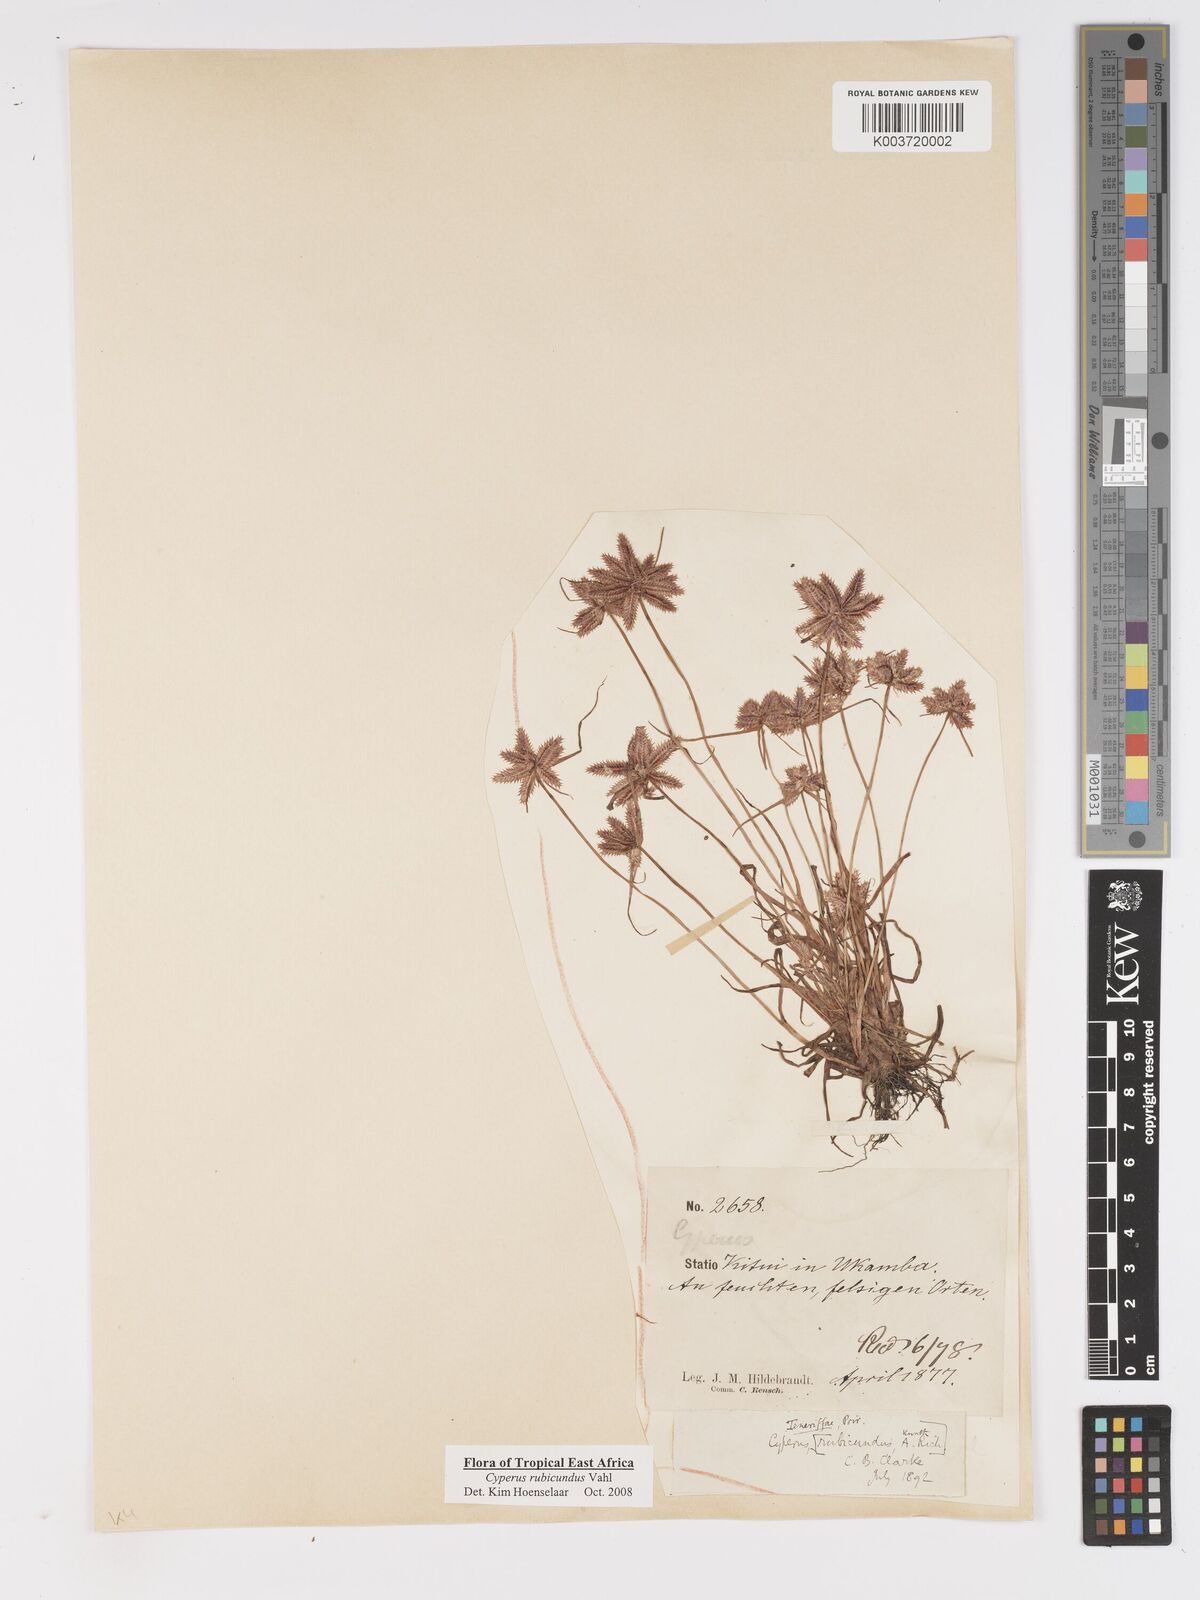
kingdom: Plantae
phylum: Tracheophyta
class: Liliopsida
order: Poales
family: Cyperaceae
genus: Cyperus
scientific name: Cyperus rubicundus
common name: Coco-grass
